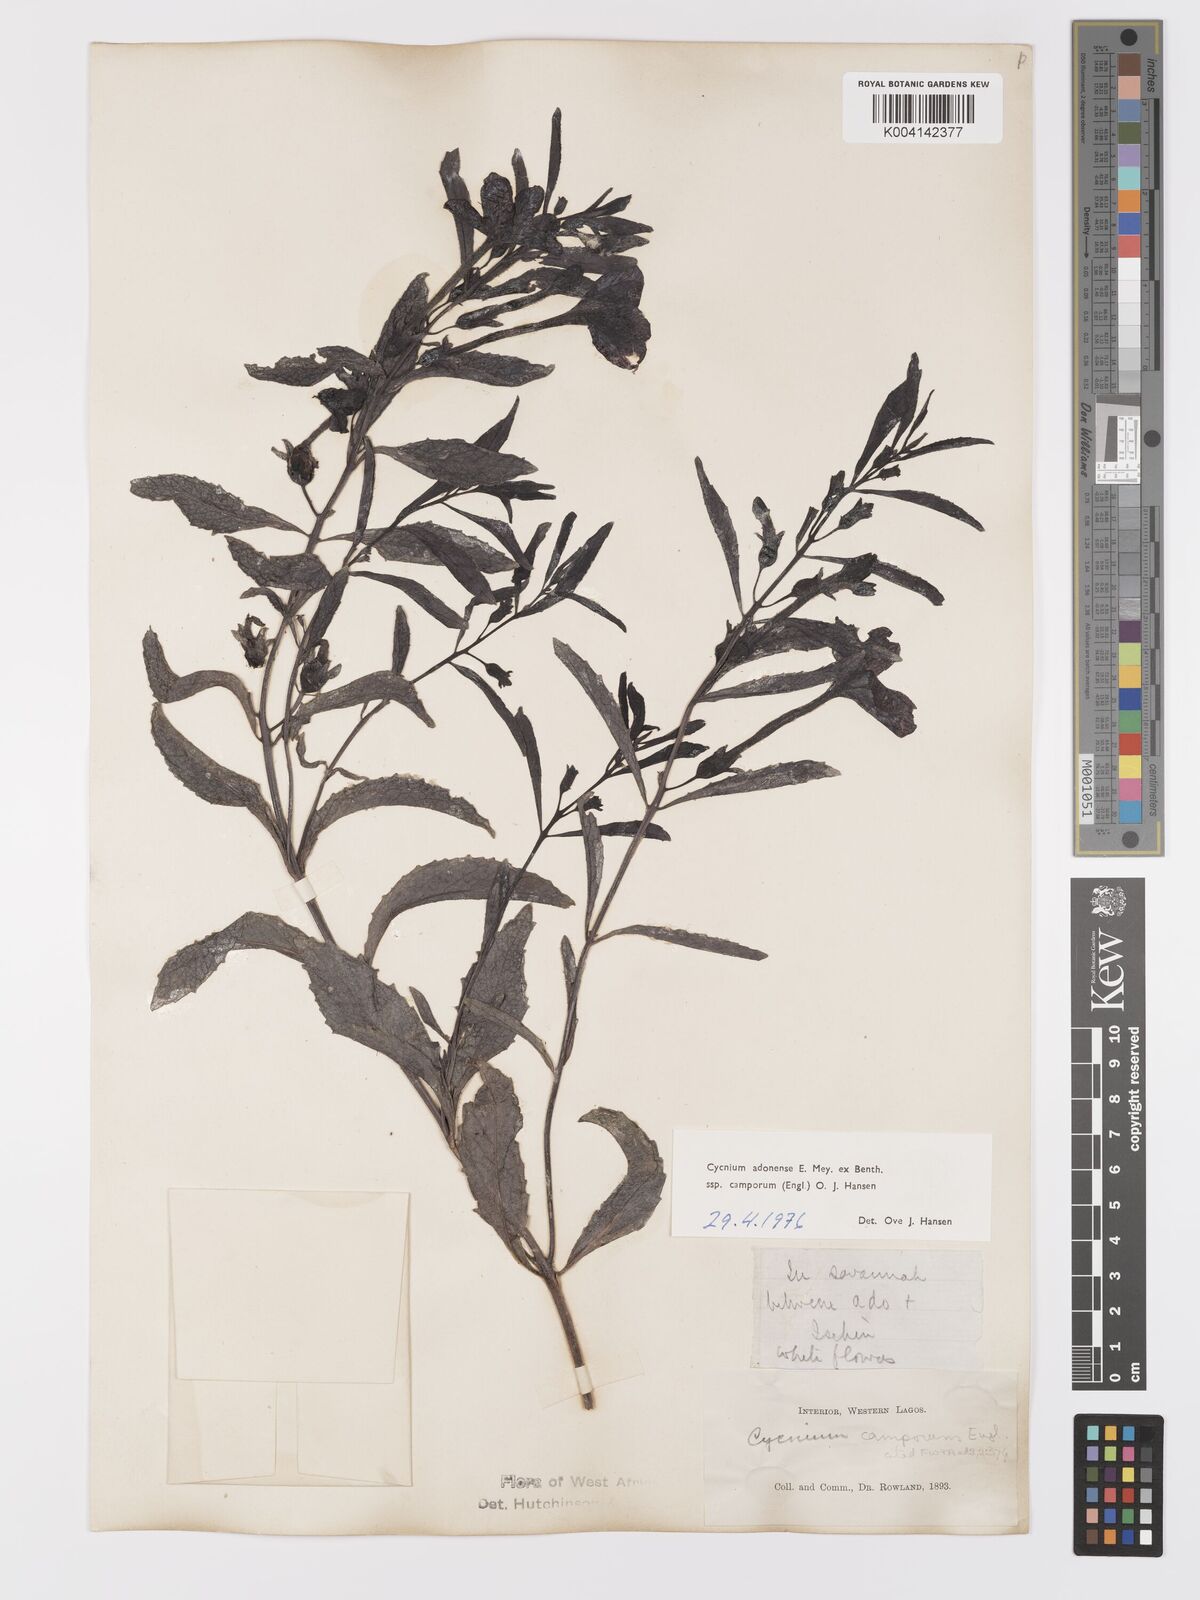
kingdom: Plantae
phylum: Tracheophyta
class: Magnoliopsida
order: Lamiales
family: Orobanchaceae
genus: Cycnium
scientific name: Cycnium adoense
